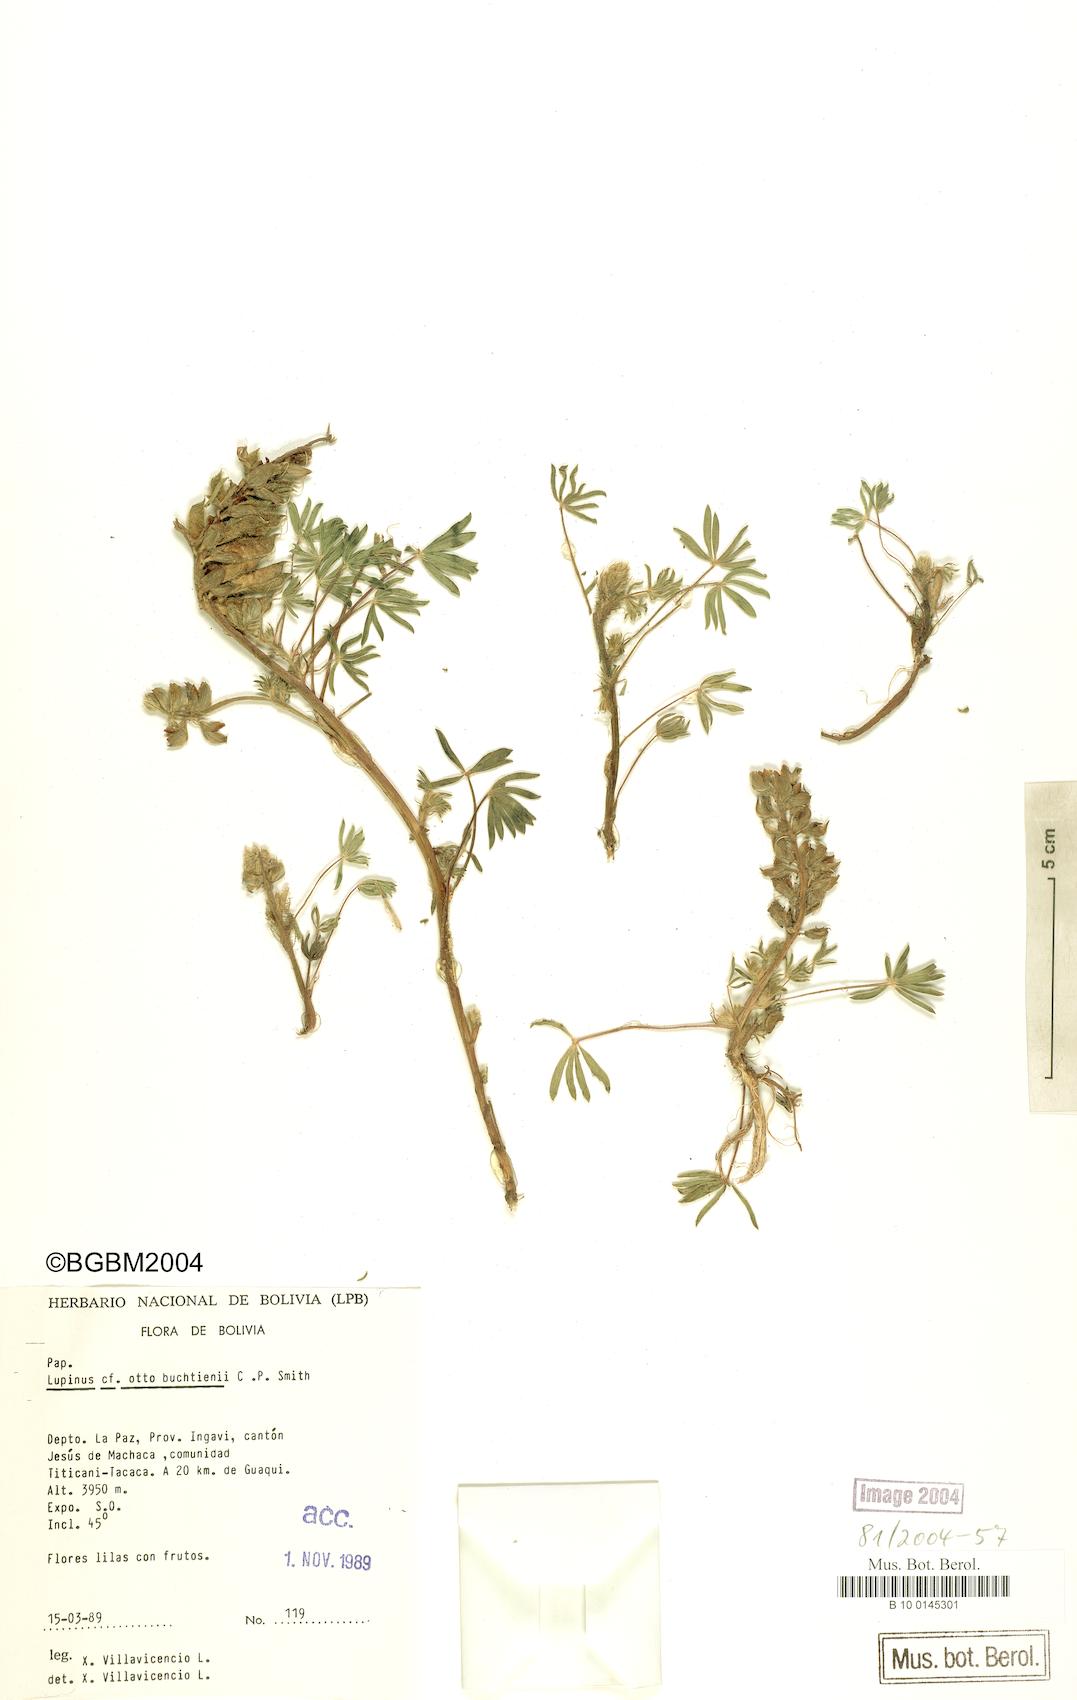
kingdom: Plantae
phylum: Tracheophyta
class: Magnoliopsida
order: Fabales
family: Fabaceae
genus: Lupinus
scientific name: Lupinus otto-buchtienii
